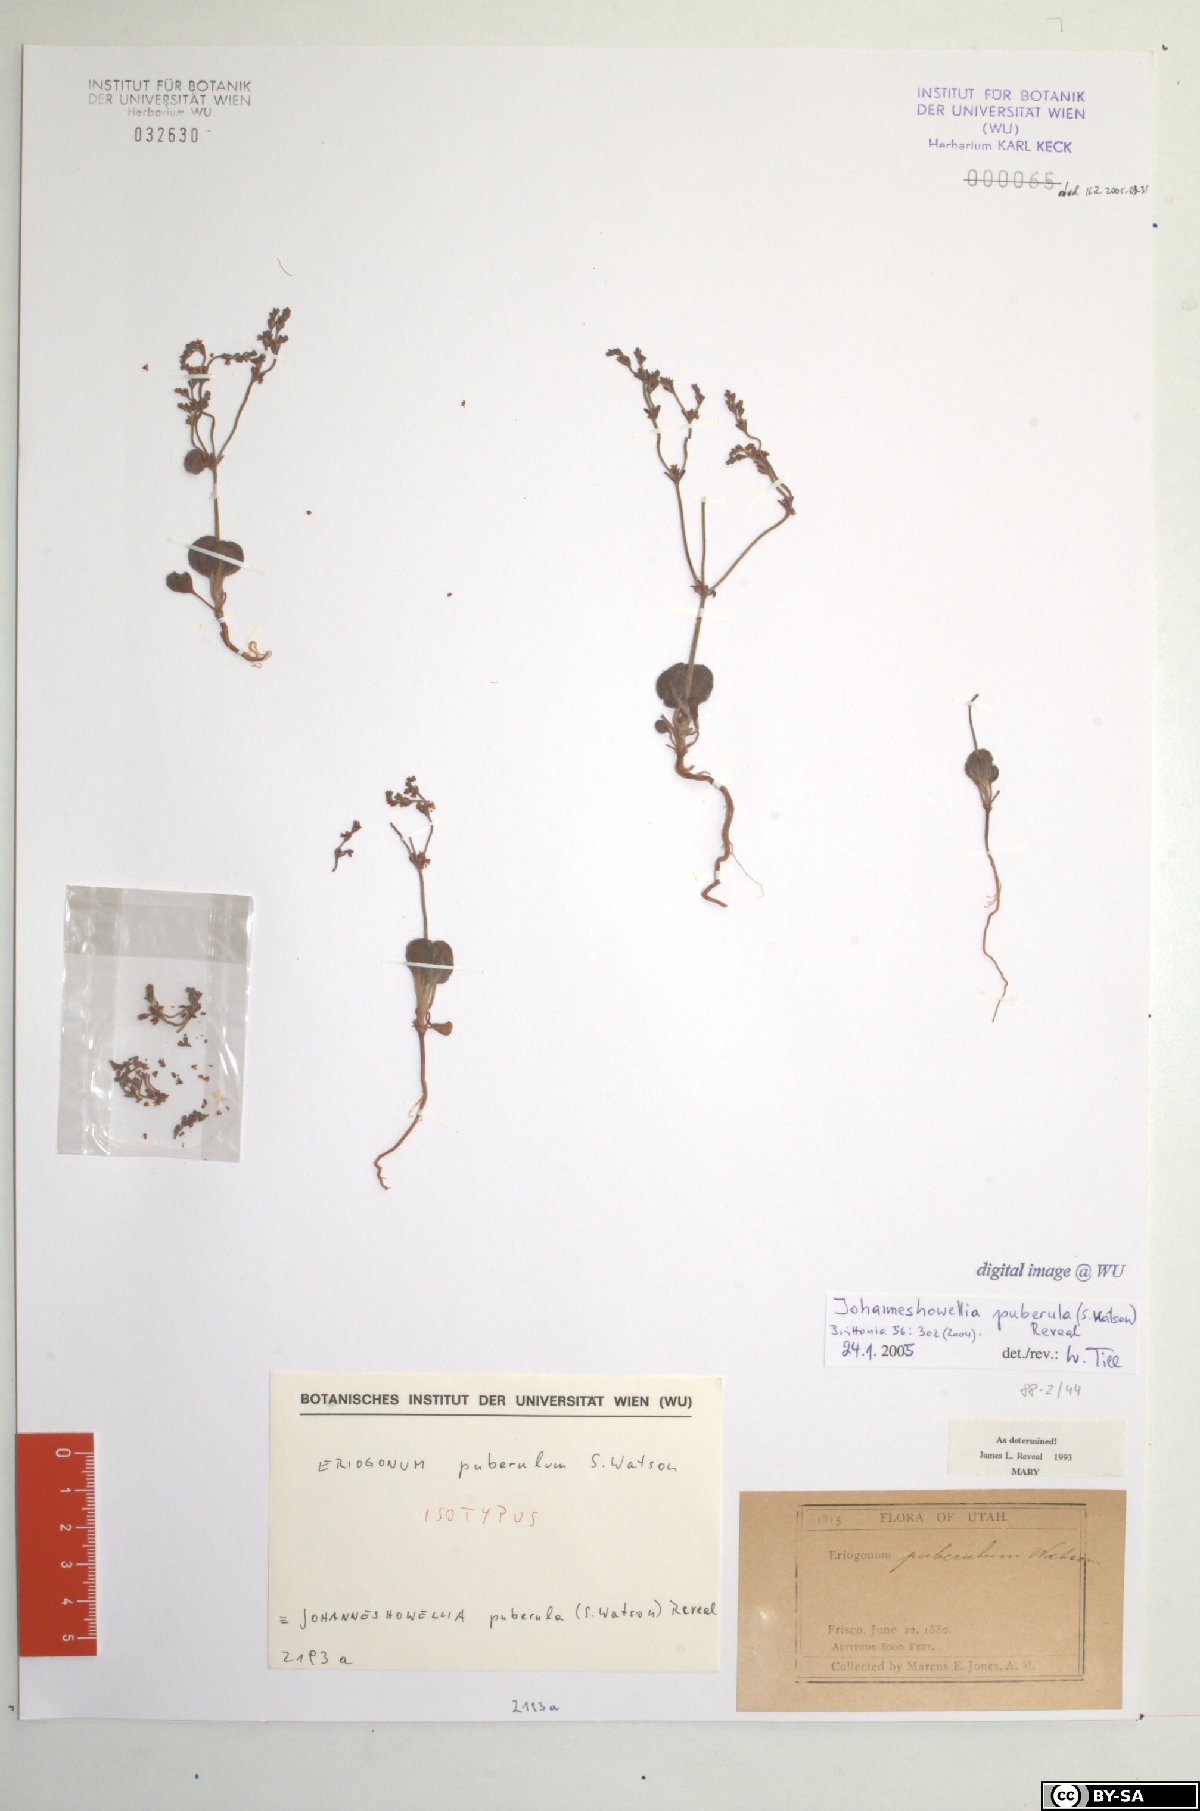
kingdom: Plantae
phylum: Tracheophyta
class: Magnoliopsida
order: Caryophyllales
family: Polygonaceae
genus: Johanneshowellia
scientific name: Johanneshowellia puberula
